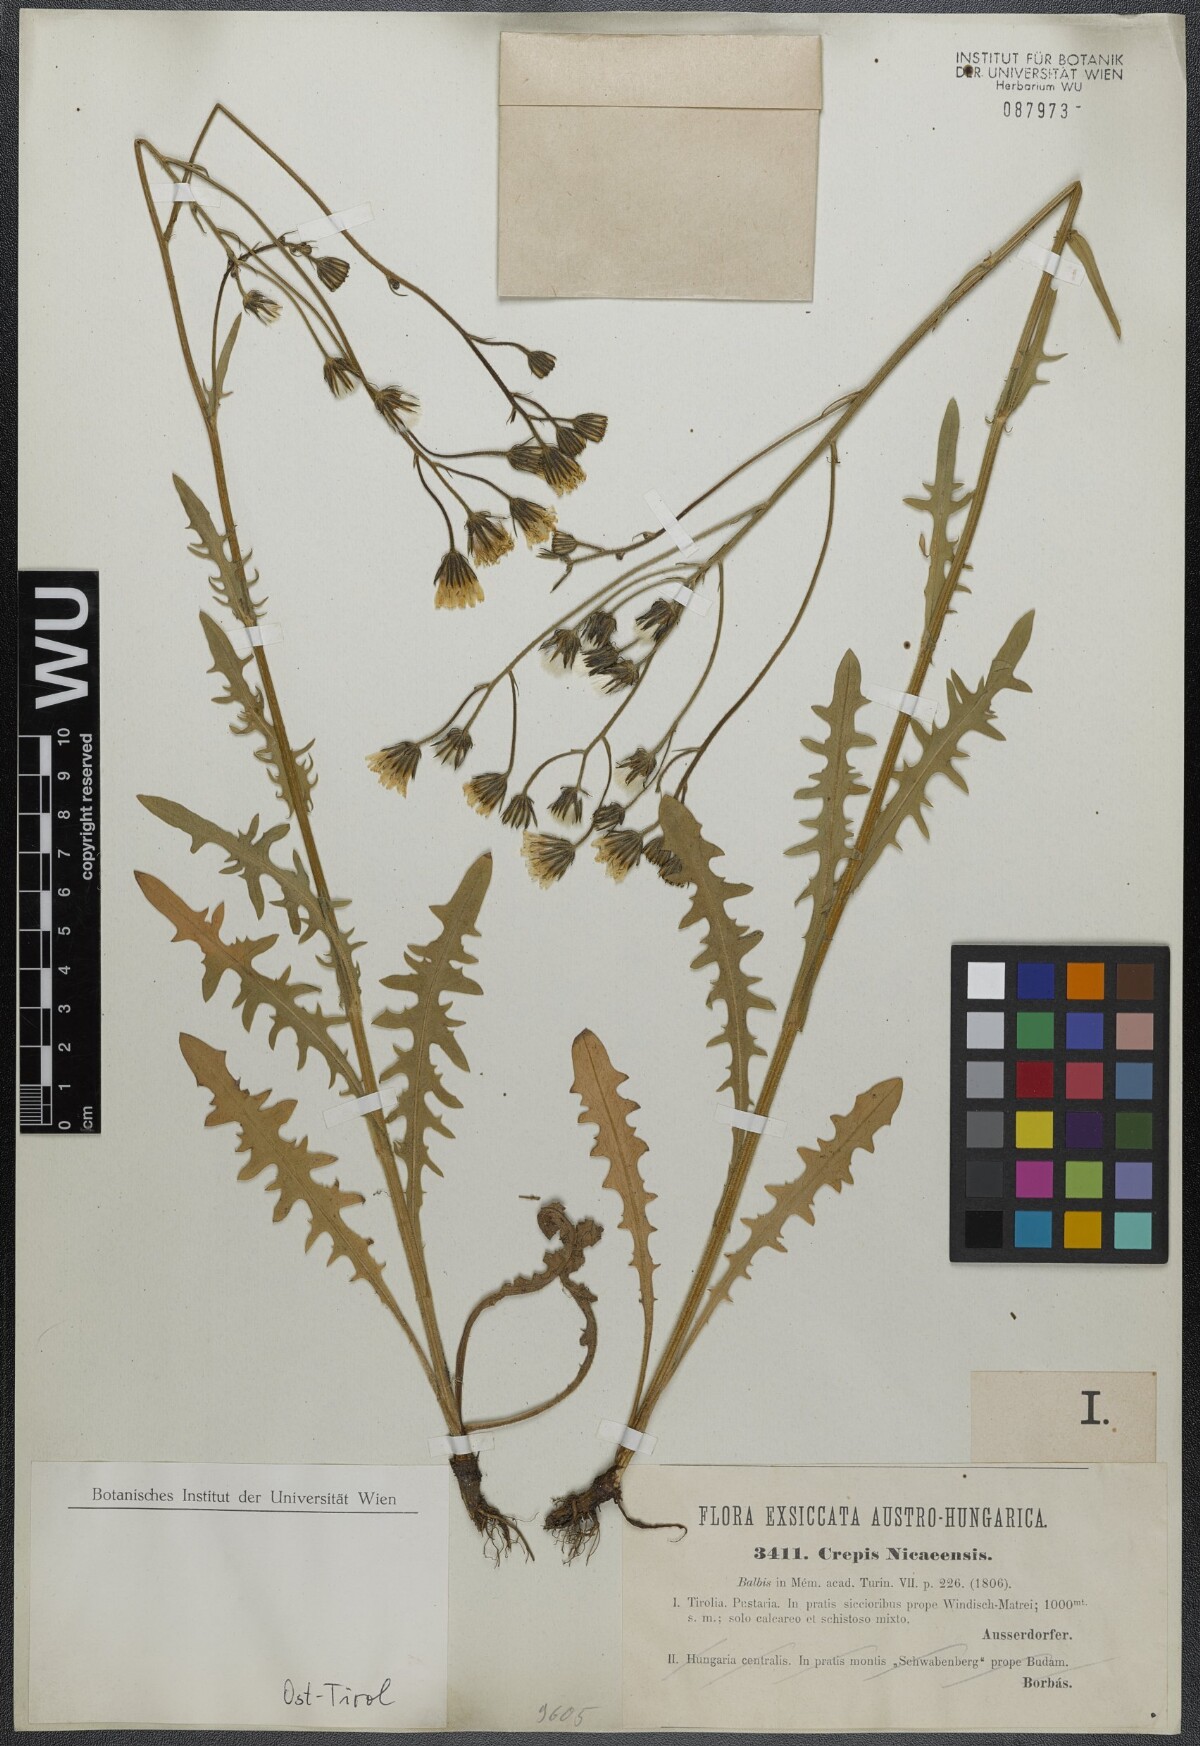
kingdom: Plantae
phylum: Tracheophyta
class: Magnoliopsida
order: Asterales
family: Asteraceae
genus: Crepis
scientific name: Crepis nicaeensis
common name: Turkish hawksbeard
